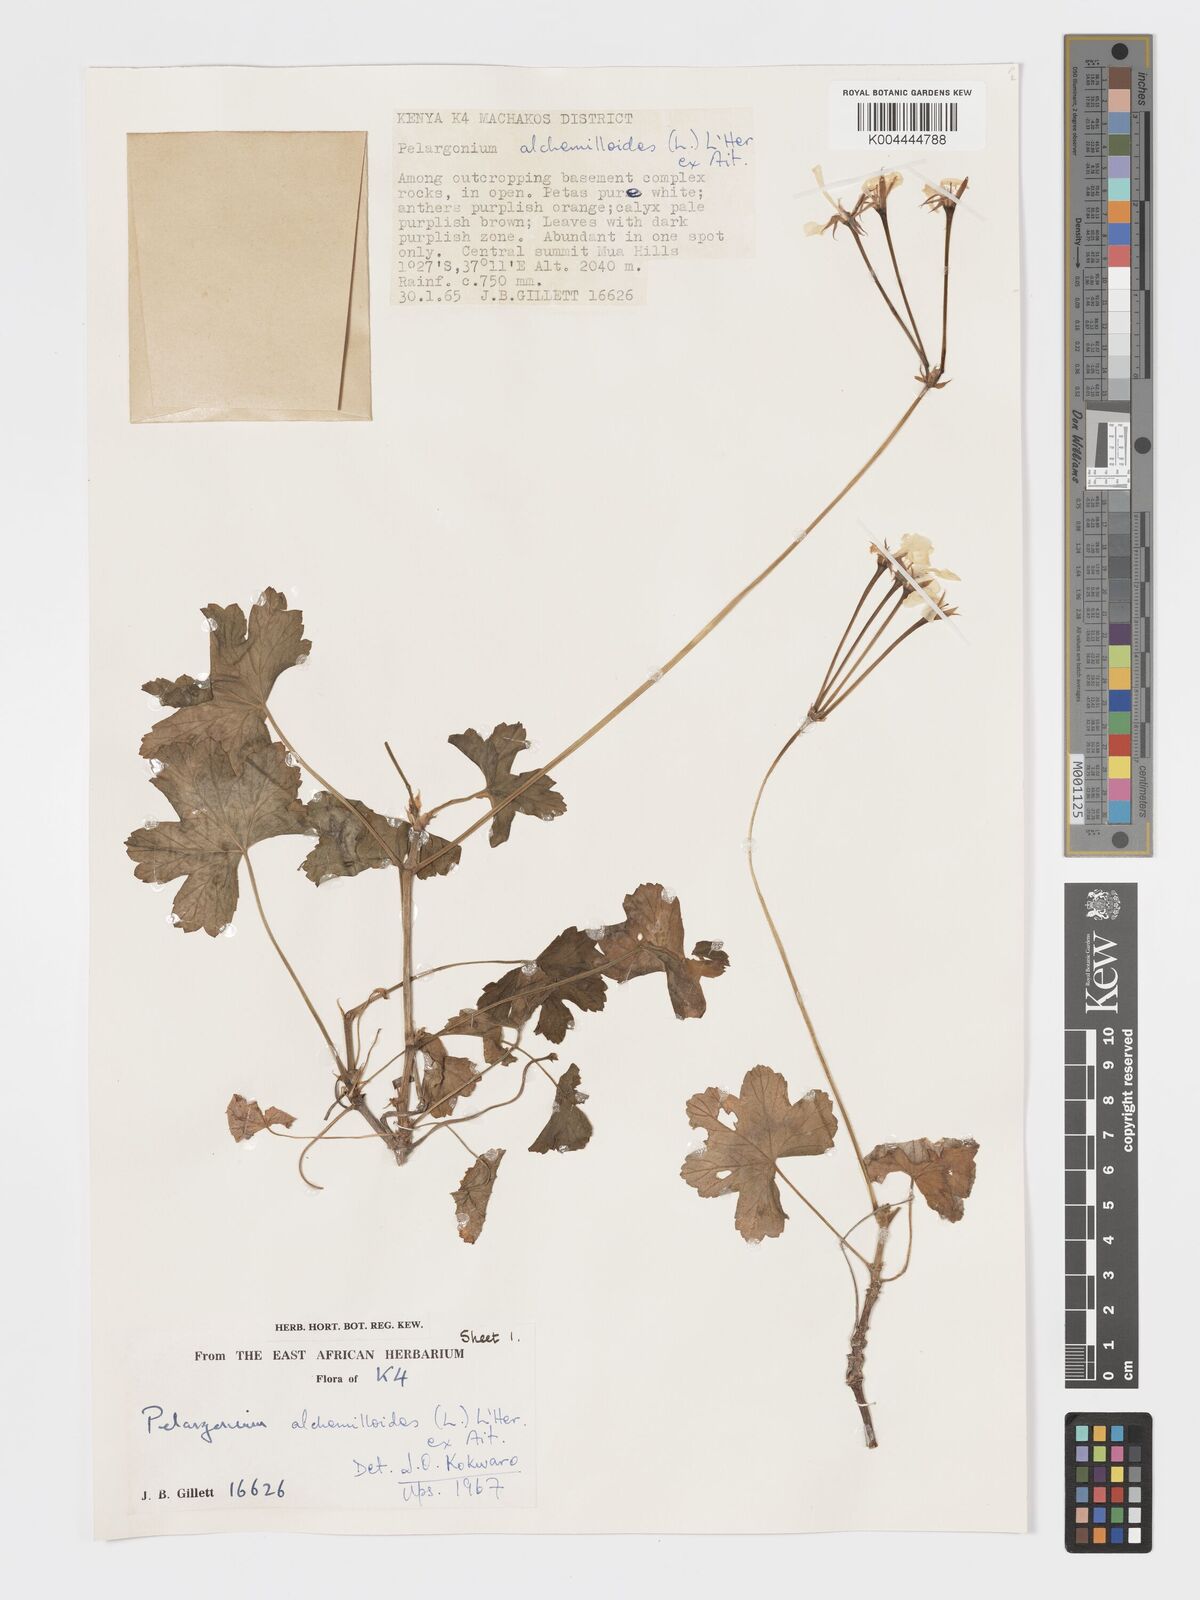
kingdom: Plantae
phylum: Tracheophyta
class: Magnoliopsida
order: Geraniales
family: Geraniaceae
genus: Pelargonium
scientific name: Pelargonium alchemilloides
